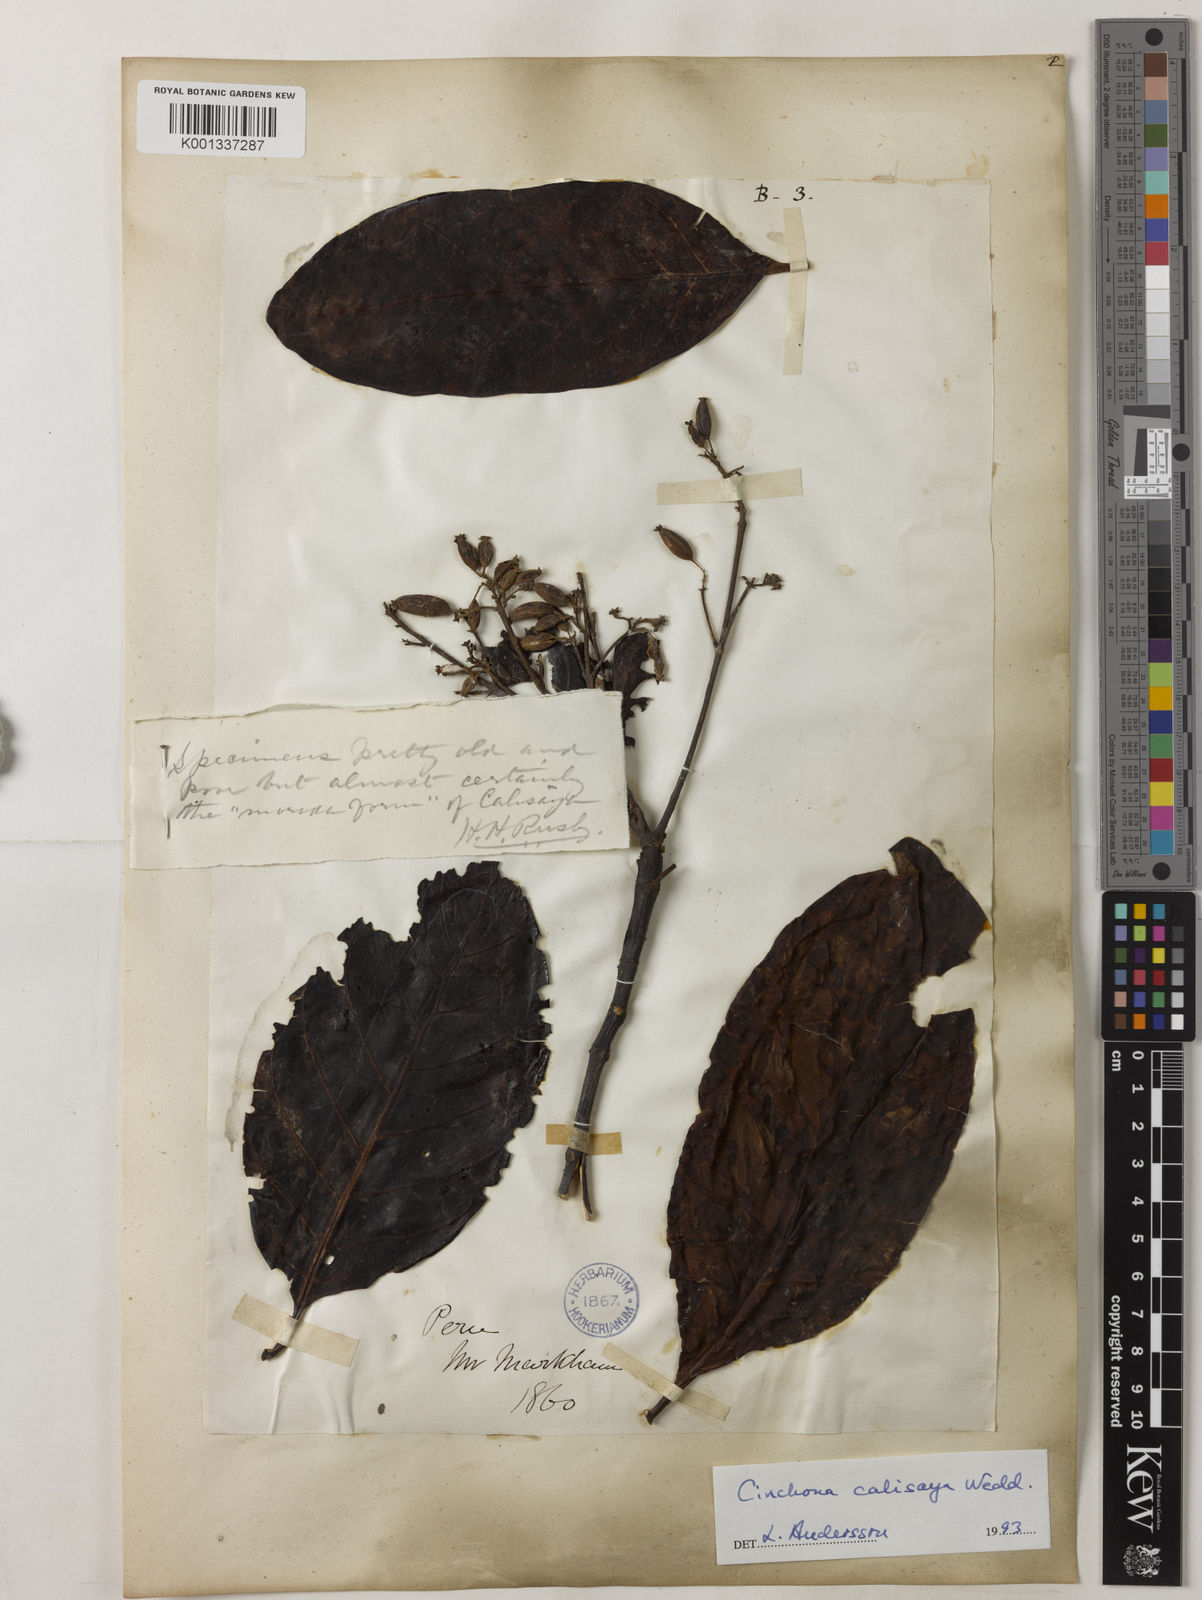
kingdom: Plantae
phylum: Tracheophyta
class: Magnoliopsida
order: Gentianales
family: Rubiaceae
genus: Cinchona
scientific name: Cinchona calisaya
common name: Ledgerbark
